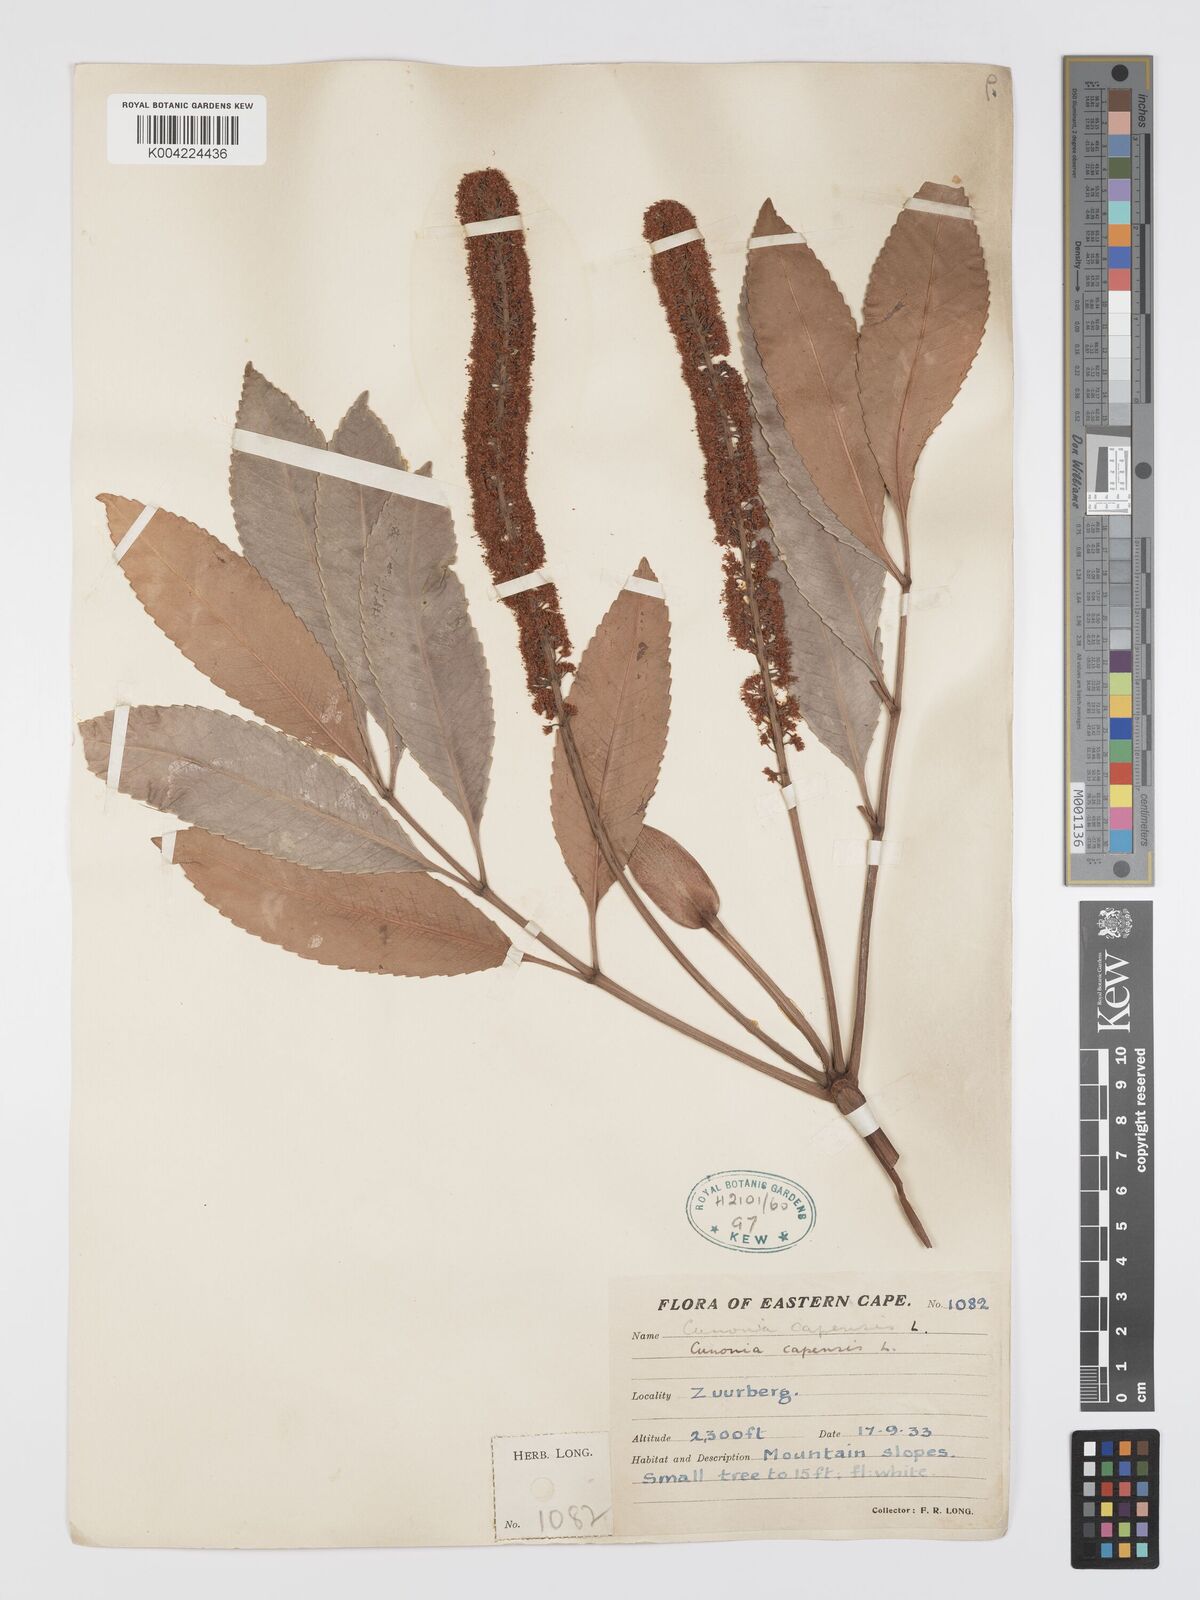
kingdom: Plantae
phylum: Tracheophyta
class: Magnoliopsida
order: Oxalidales
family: Cunoniaceae
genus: Cunonia
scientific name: Cunonia capensis
